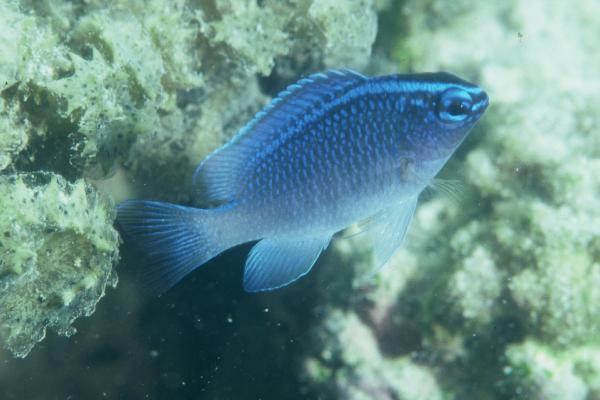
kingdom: Animalia
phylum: Chordata
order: Perciformes
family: Pomacentridae
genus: Chrysiptera
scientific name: Chrysiptera glauca
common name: Grey demoiselle
